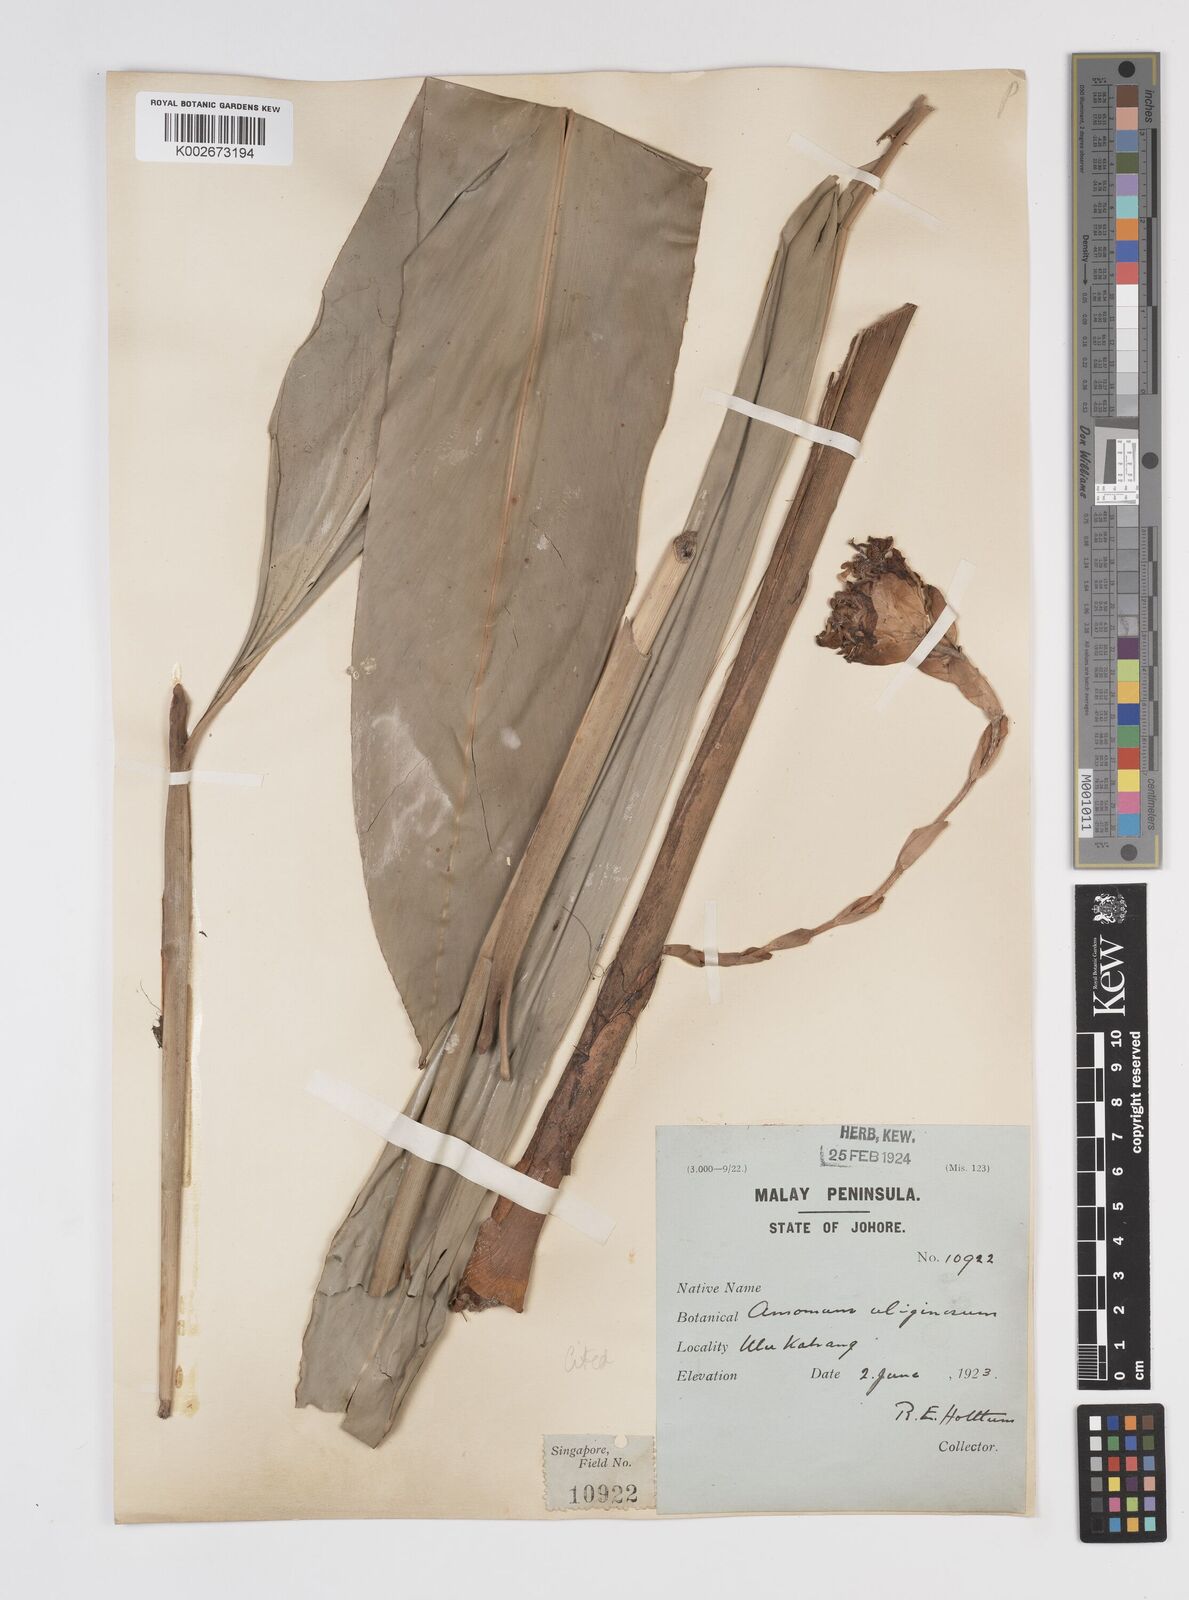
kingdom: Plantae
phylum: Tracheophyta
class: Liliopsida
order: Zingiberales
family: Zingiberaceae
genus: Wurfbainia
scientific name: Wurfbainia uliginosa
